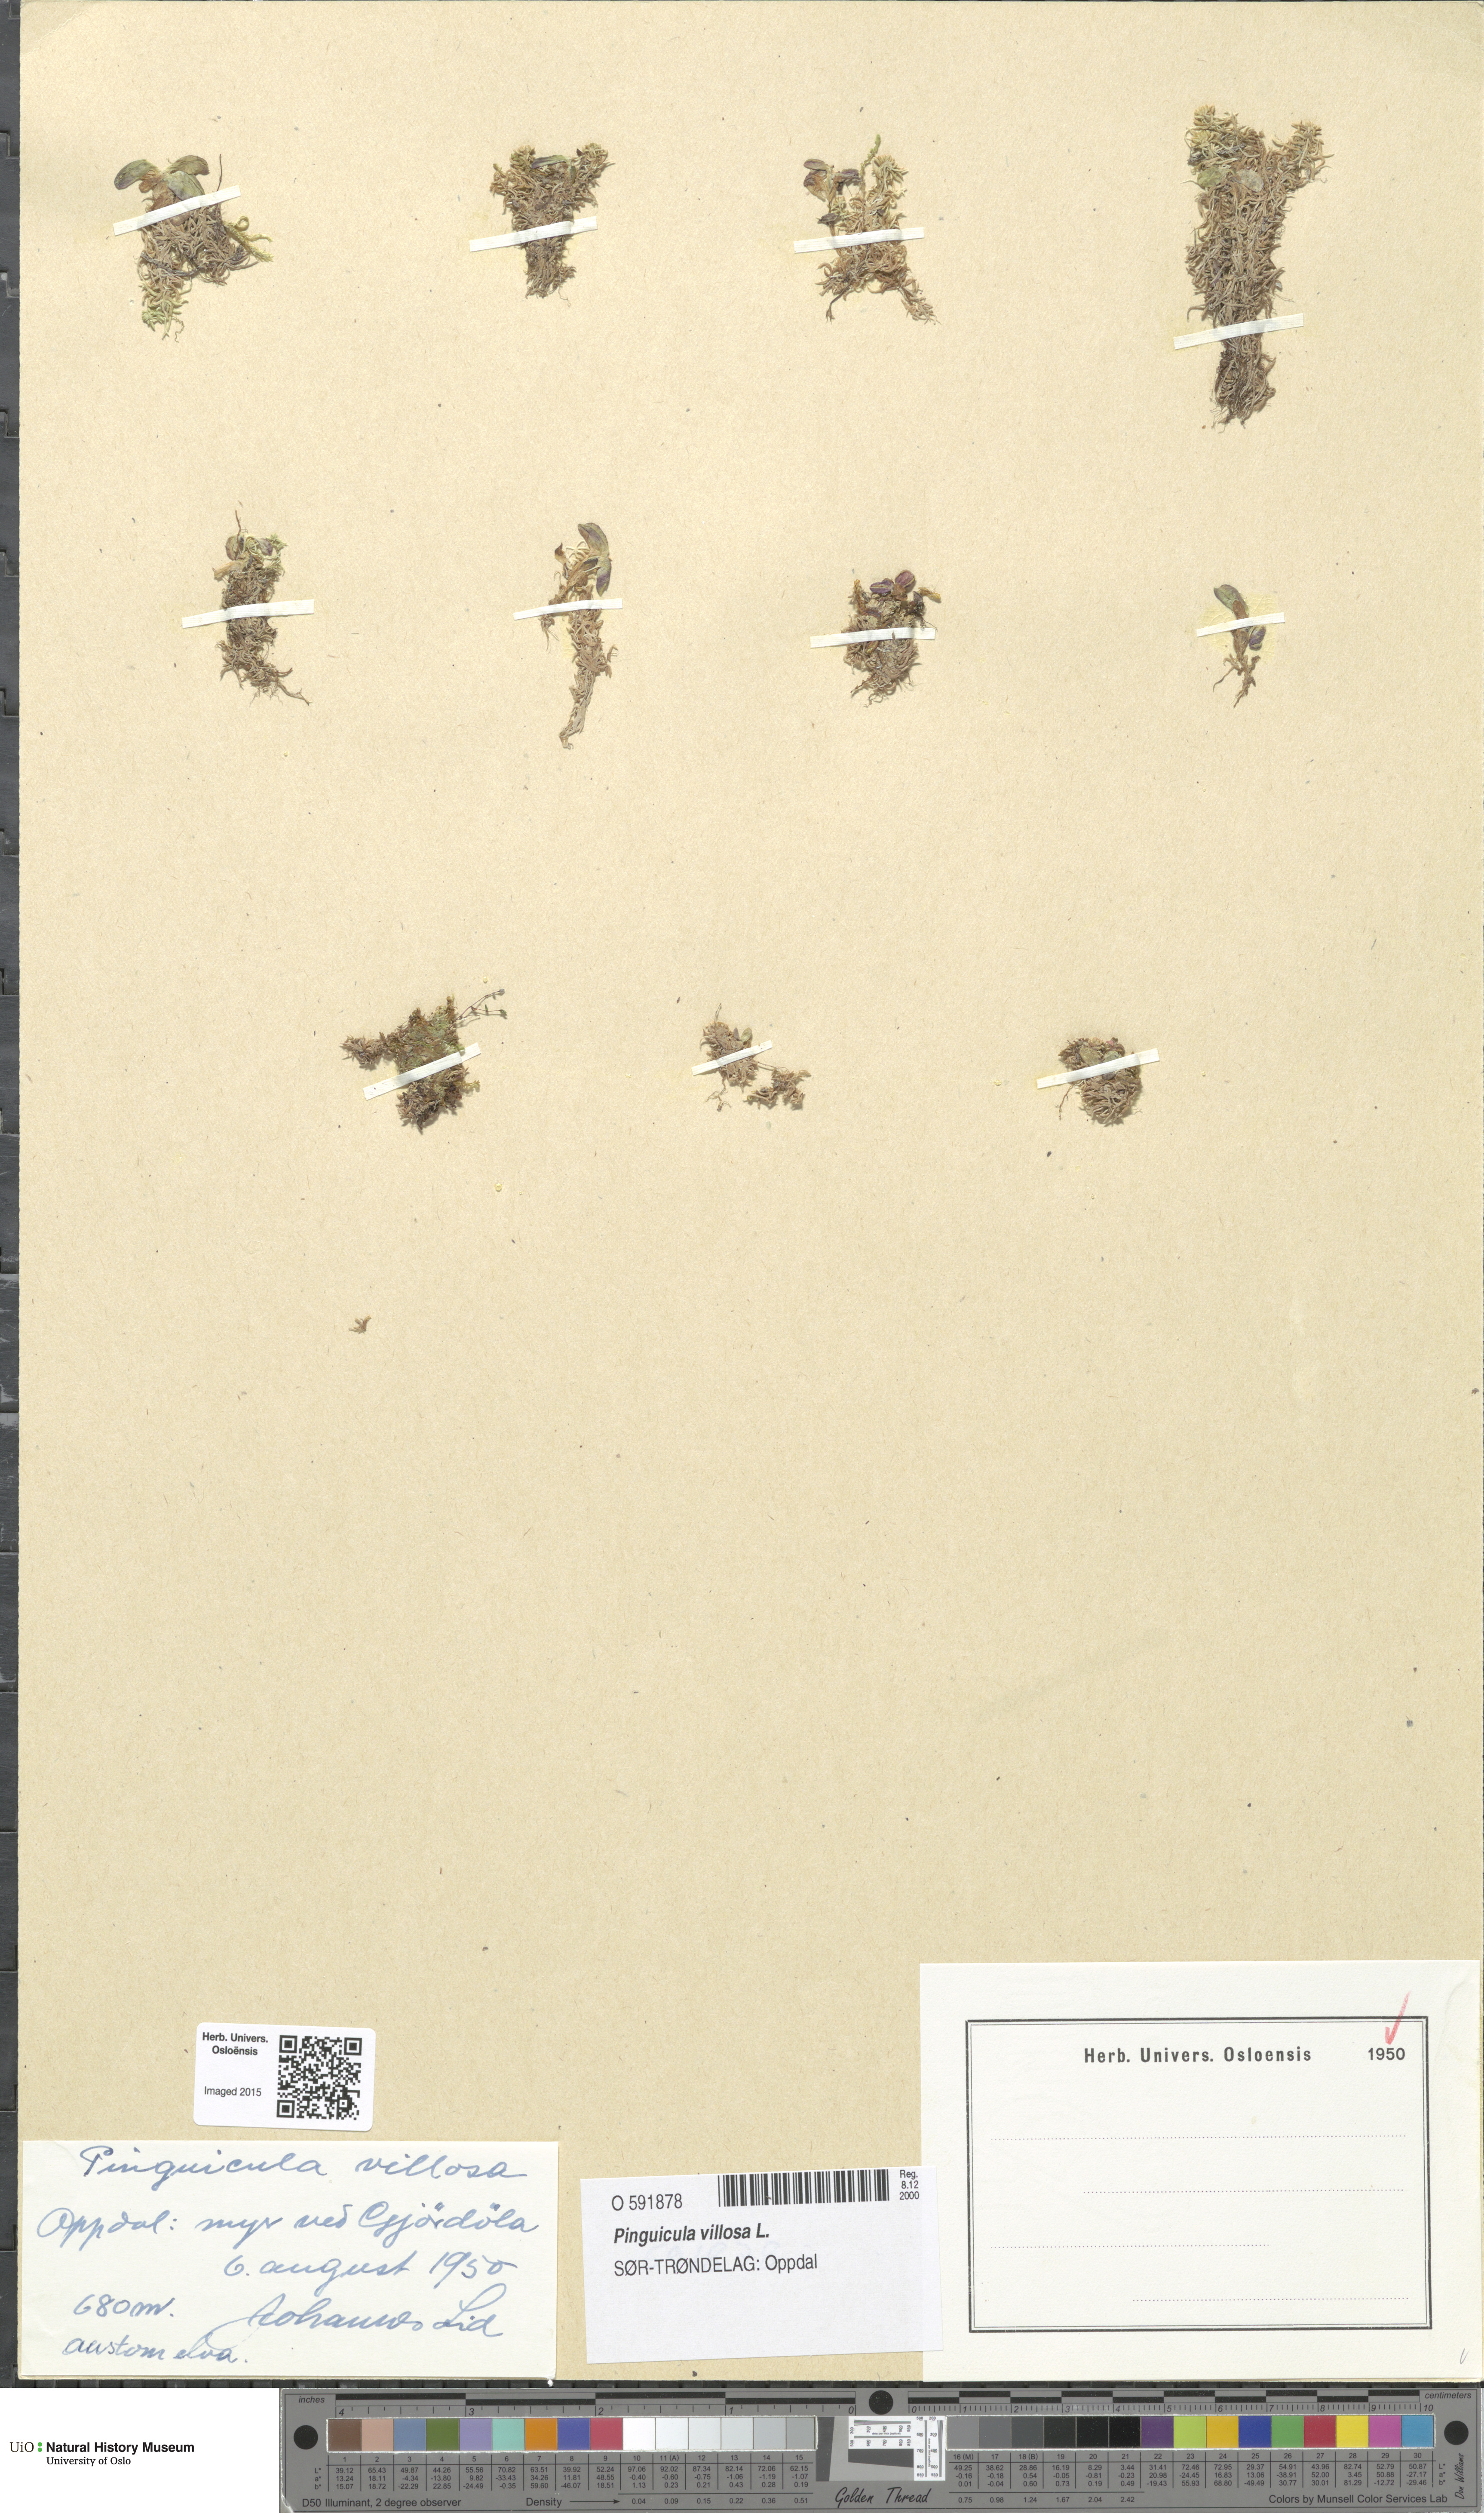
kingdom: Plantae
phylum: Tracheophyta
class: Magnoliopsida
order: Lamiales
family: Lentibulariaceae
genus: Pinguicula
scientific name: Pinguicula villosa
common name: Hairy butterwort
